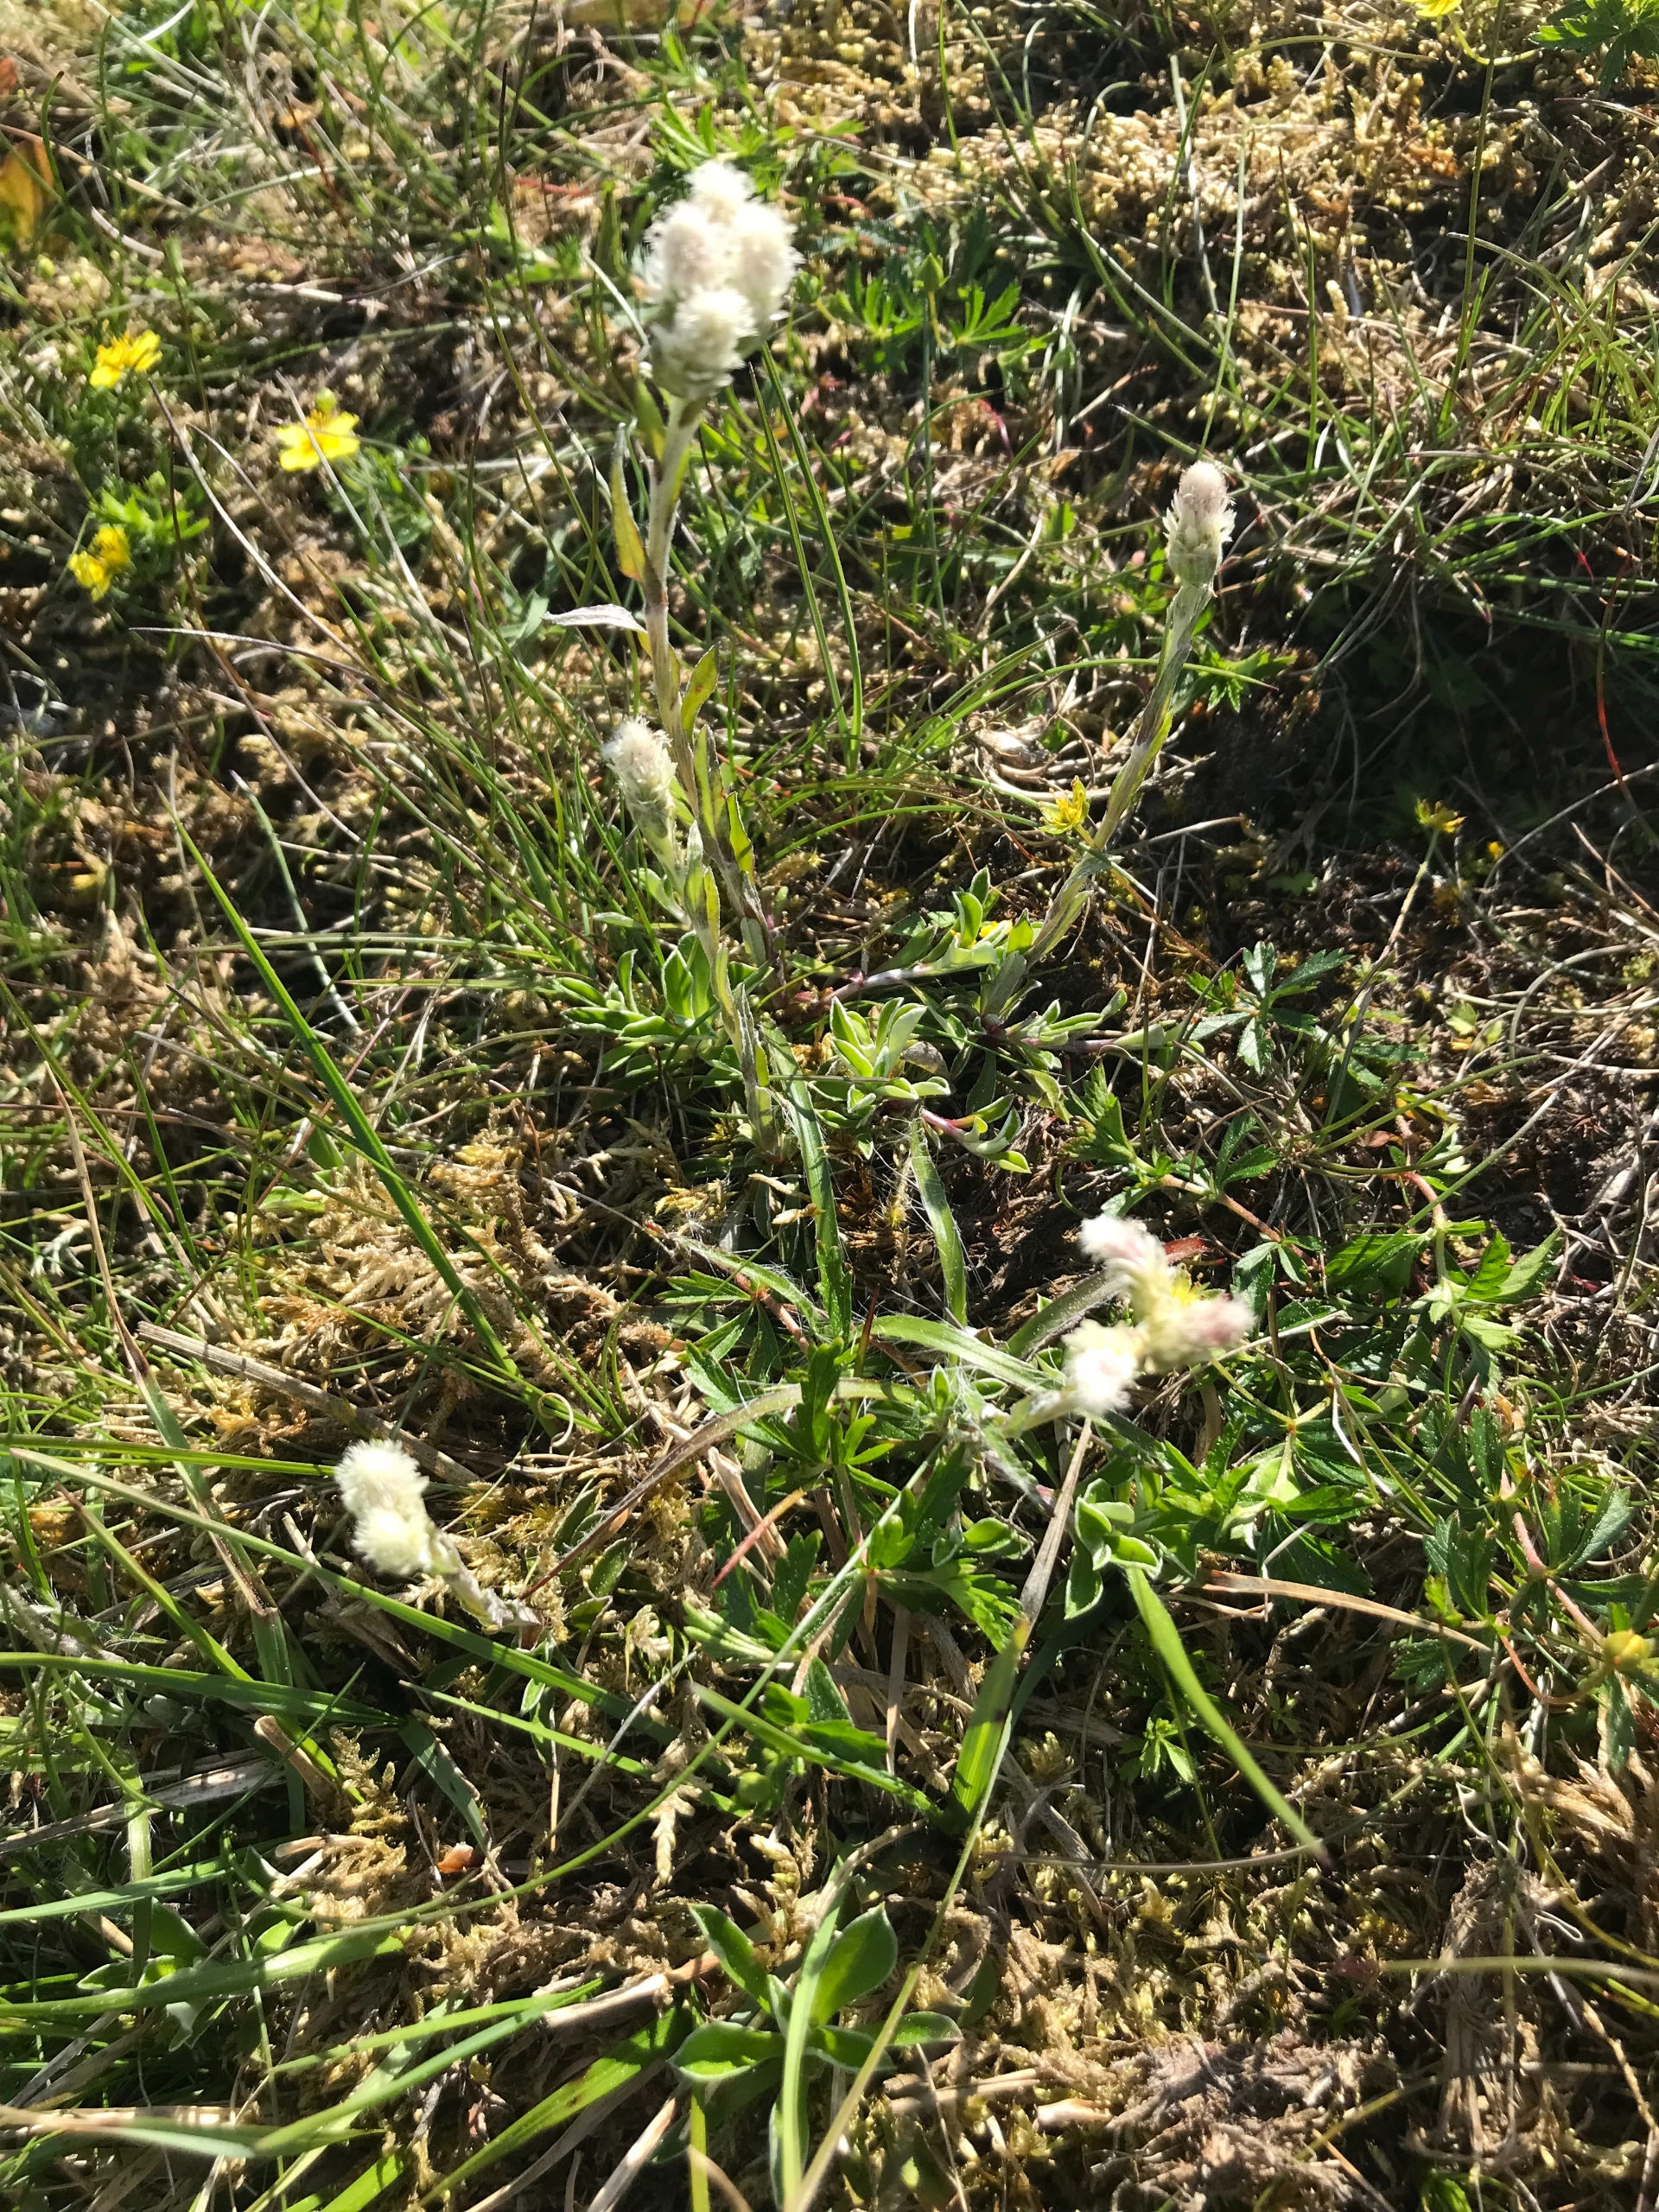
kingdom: Plantae
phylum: Tracheophyta
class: Magnoliopsida
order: Asterales
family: Asteraceae
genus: Antennaria
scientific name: Antennaria dioica
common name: Kattefod
